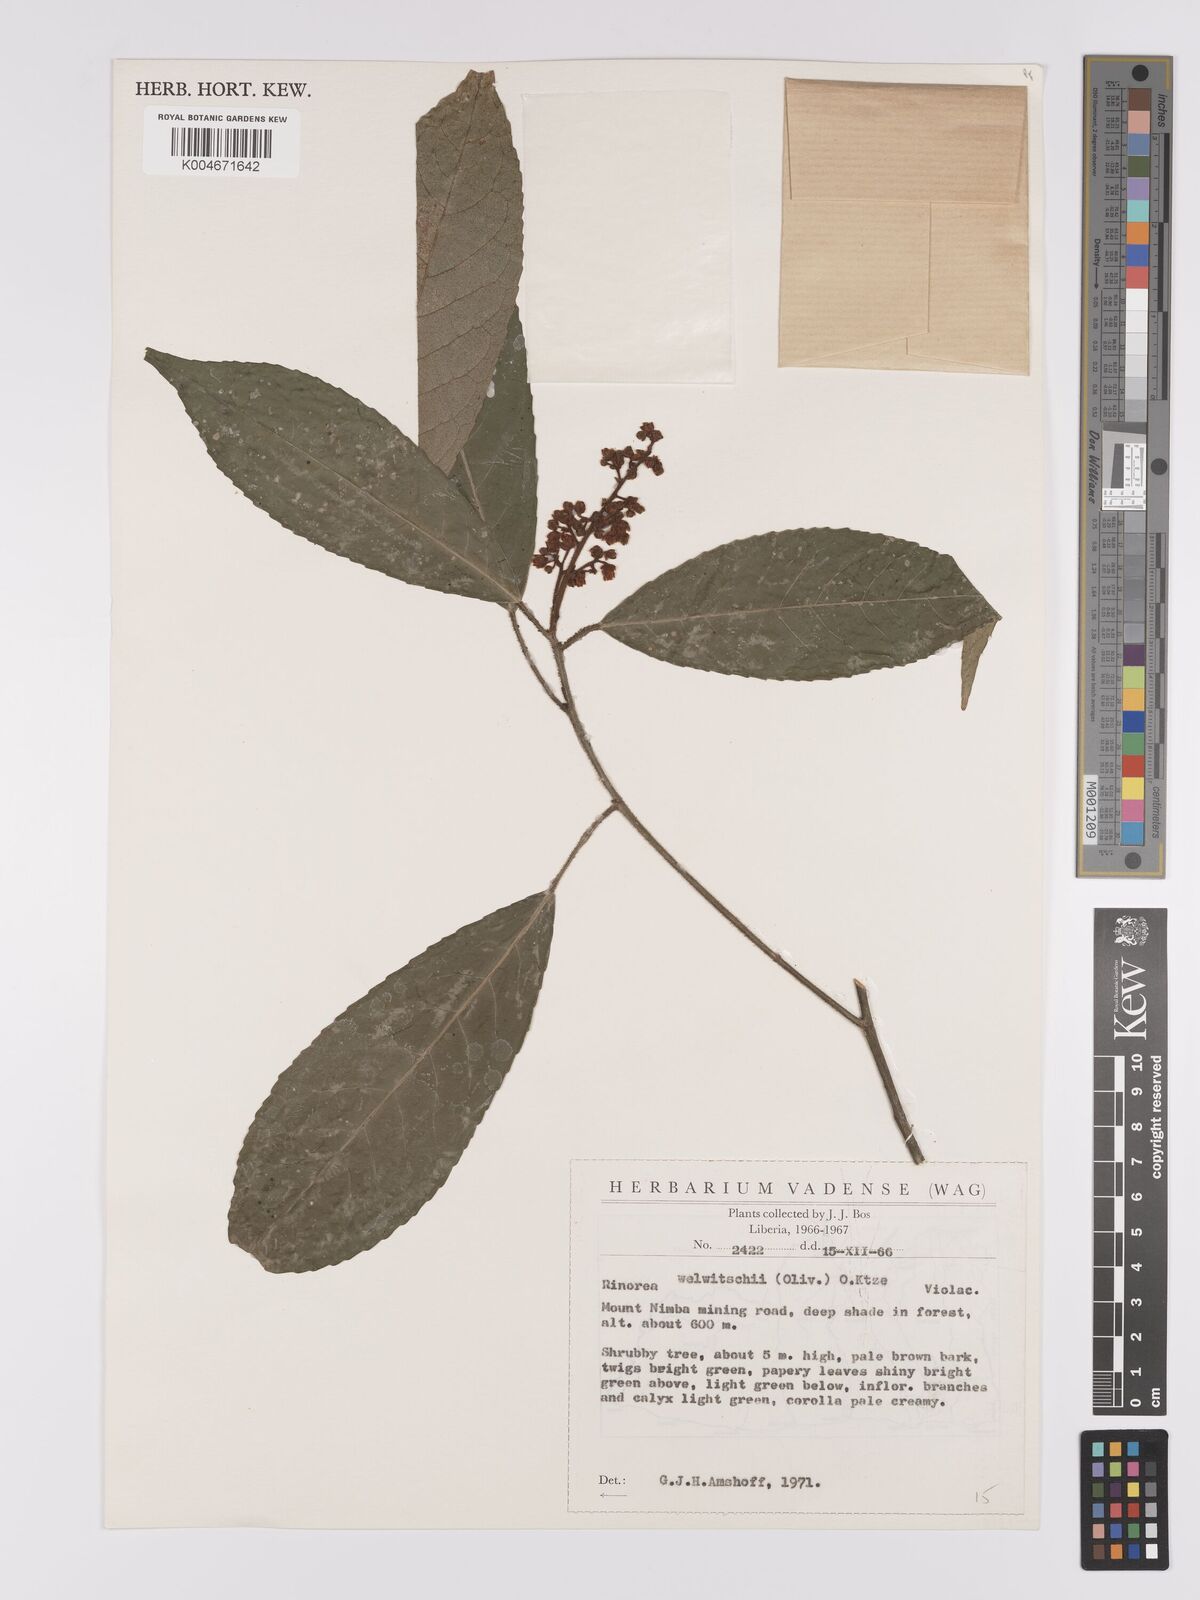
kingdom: Plantae
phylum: Tracheophyta
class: Magnoliopsida
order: Malpighiales
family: Violaceae
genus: Rinorea
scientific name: Rinorea welwitschii
